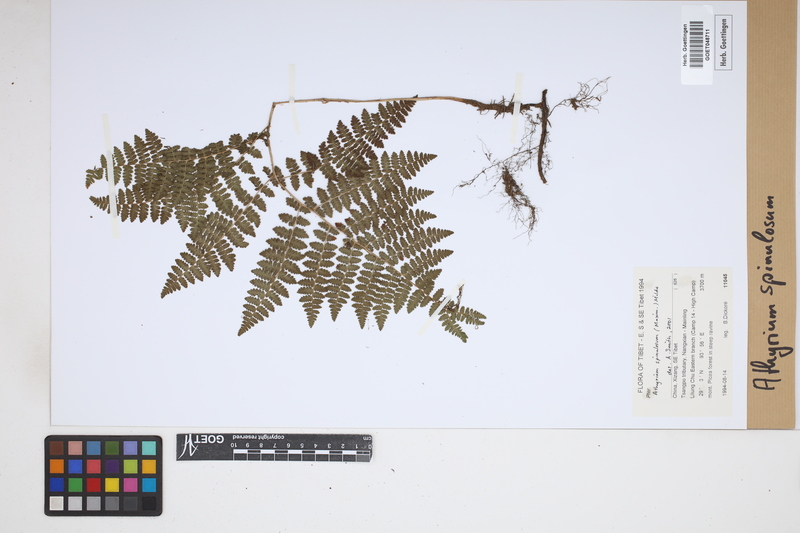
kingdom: Plantae
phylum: Tracheophyta
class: Polypodiopsida
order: Polypodiales
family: Athyriaceae
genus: Athyrium
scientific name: Athyrium spinulosum
